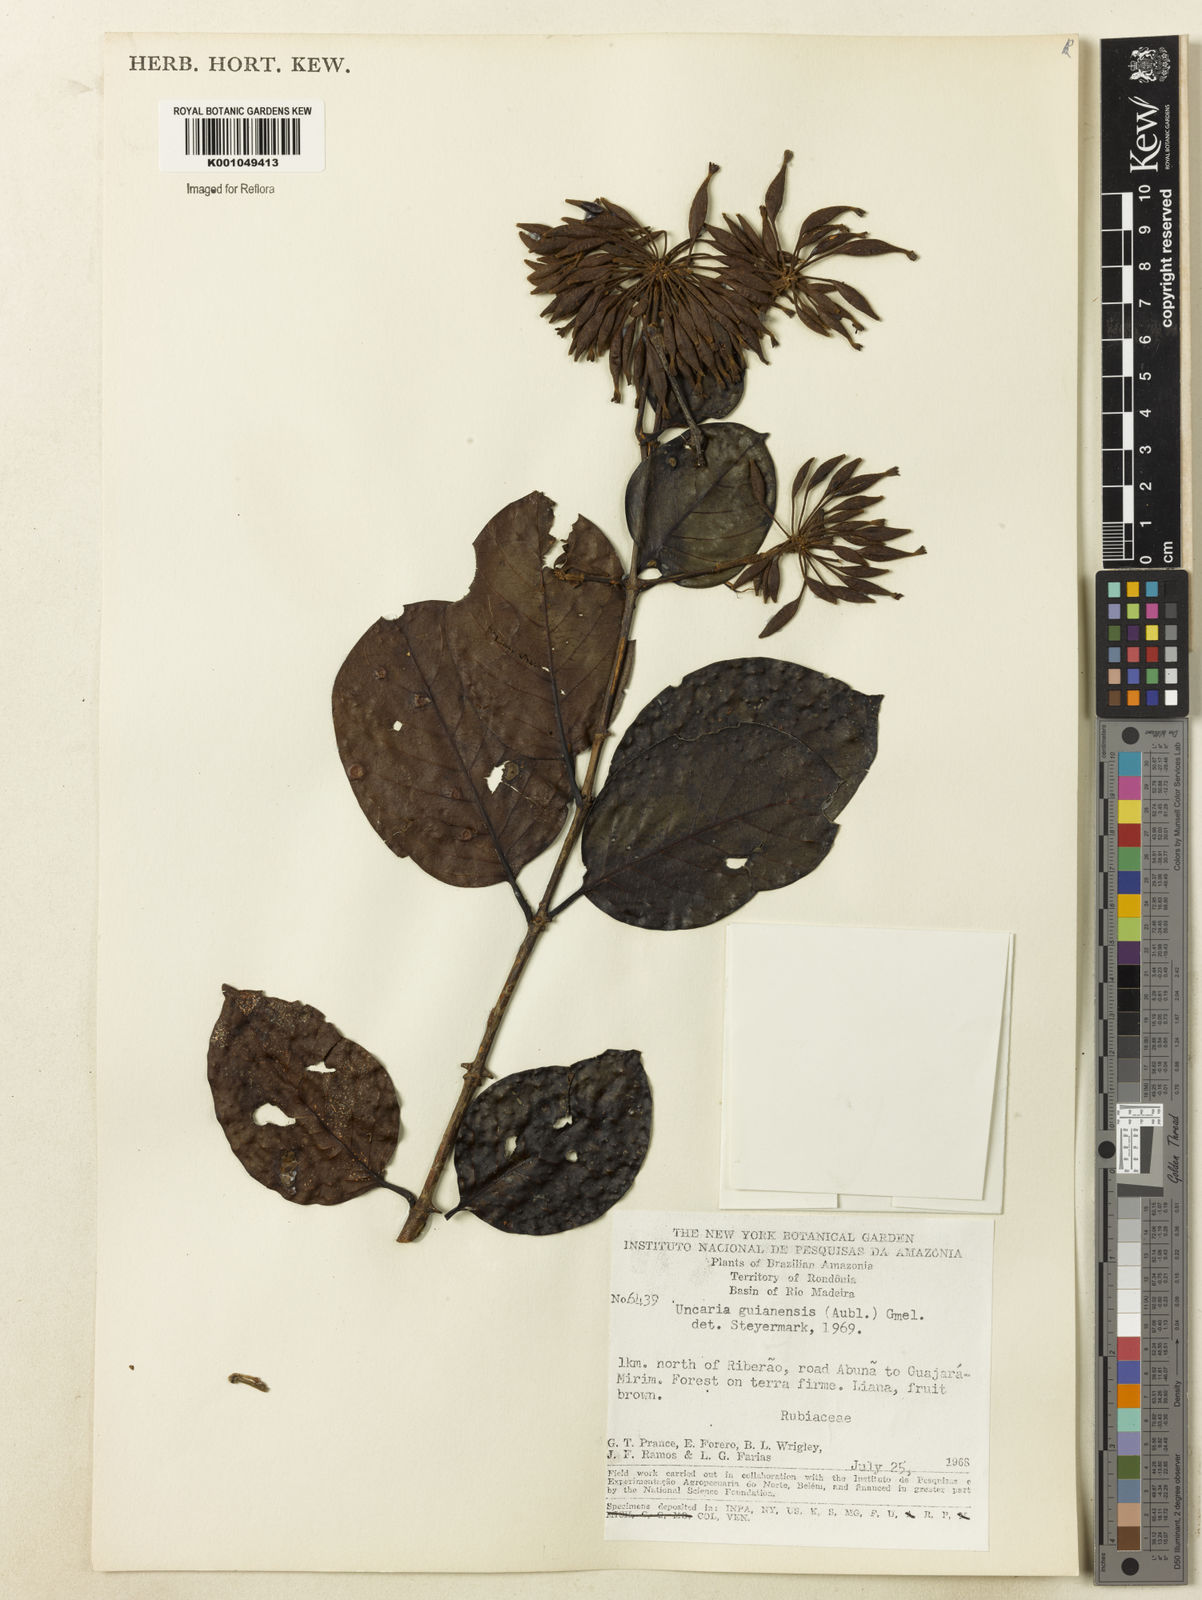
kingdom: Plantae
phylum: Tracheophyta
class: Magnoliopsida
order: Gentianales
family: Rubiaceae
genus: Uncaria
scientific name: Uncaria guianensis
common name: Cat's-claw
